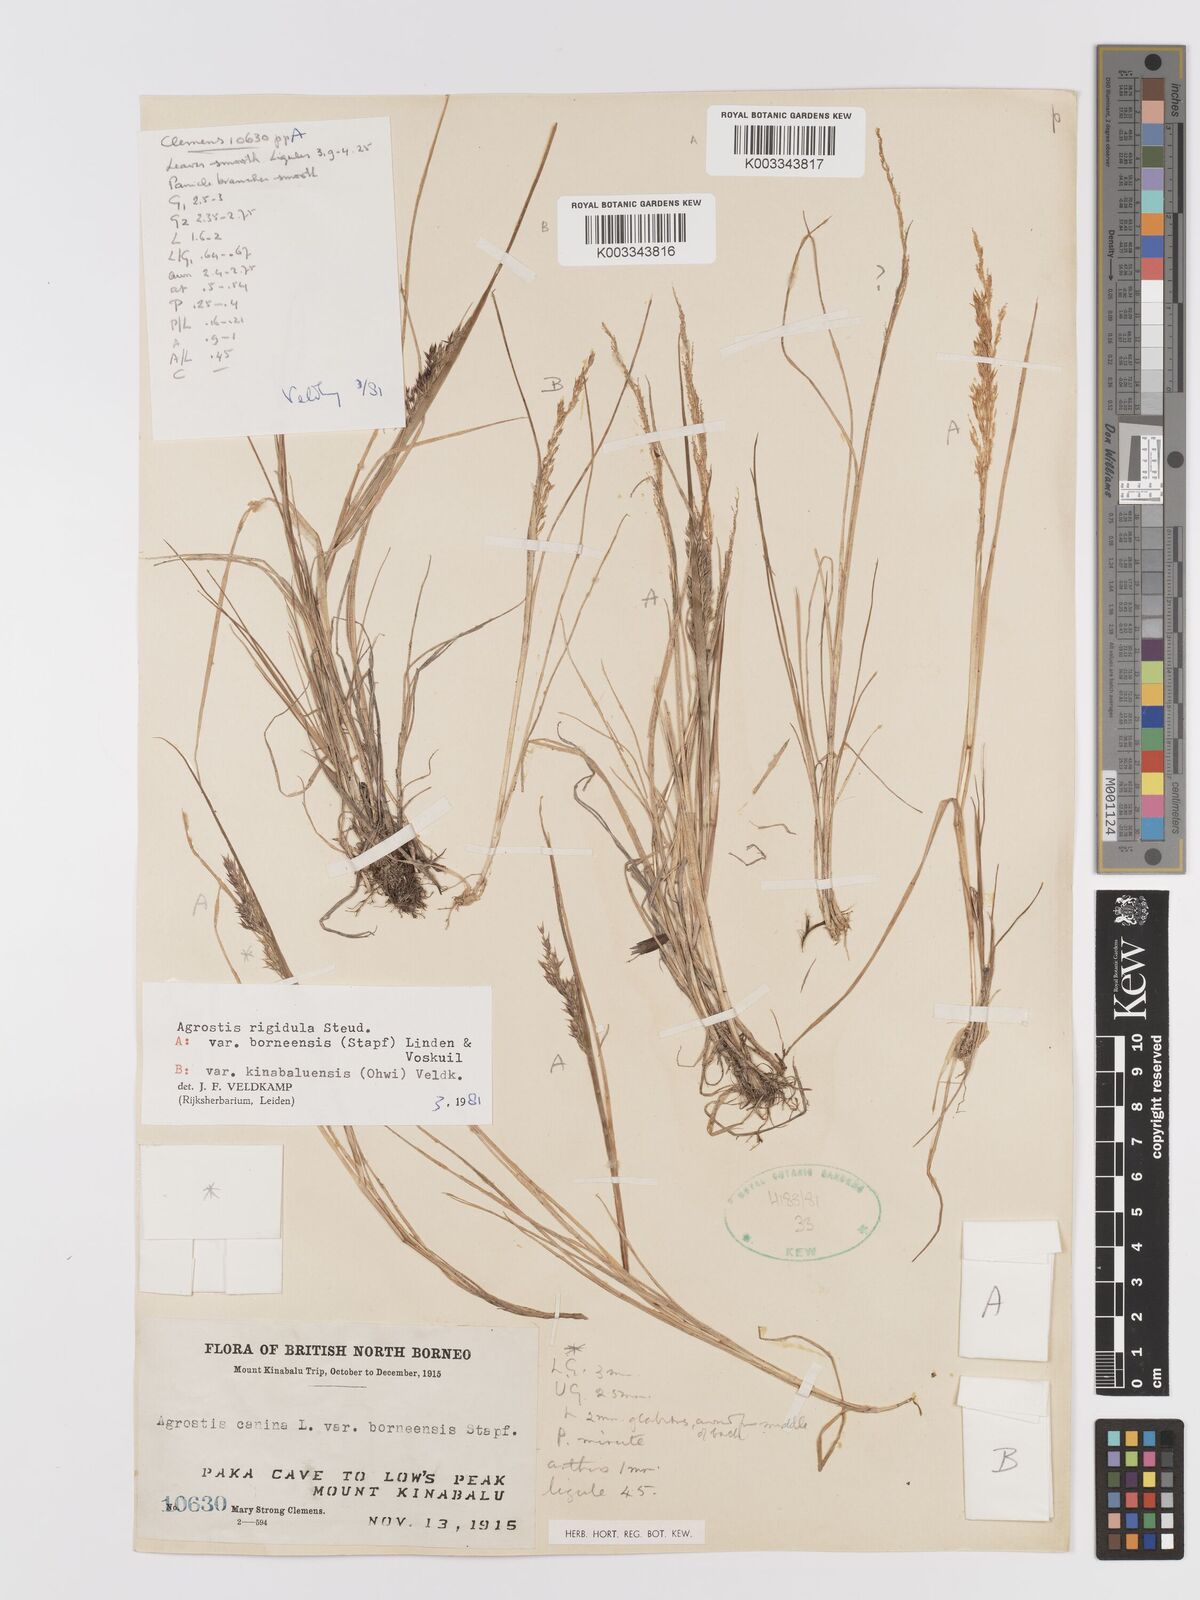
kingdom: Plantae
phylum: Tracheophyta
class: Liliopsida
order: Poales
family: Poaceae
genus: Agrostis
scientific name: Agrostis infirma
